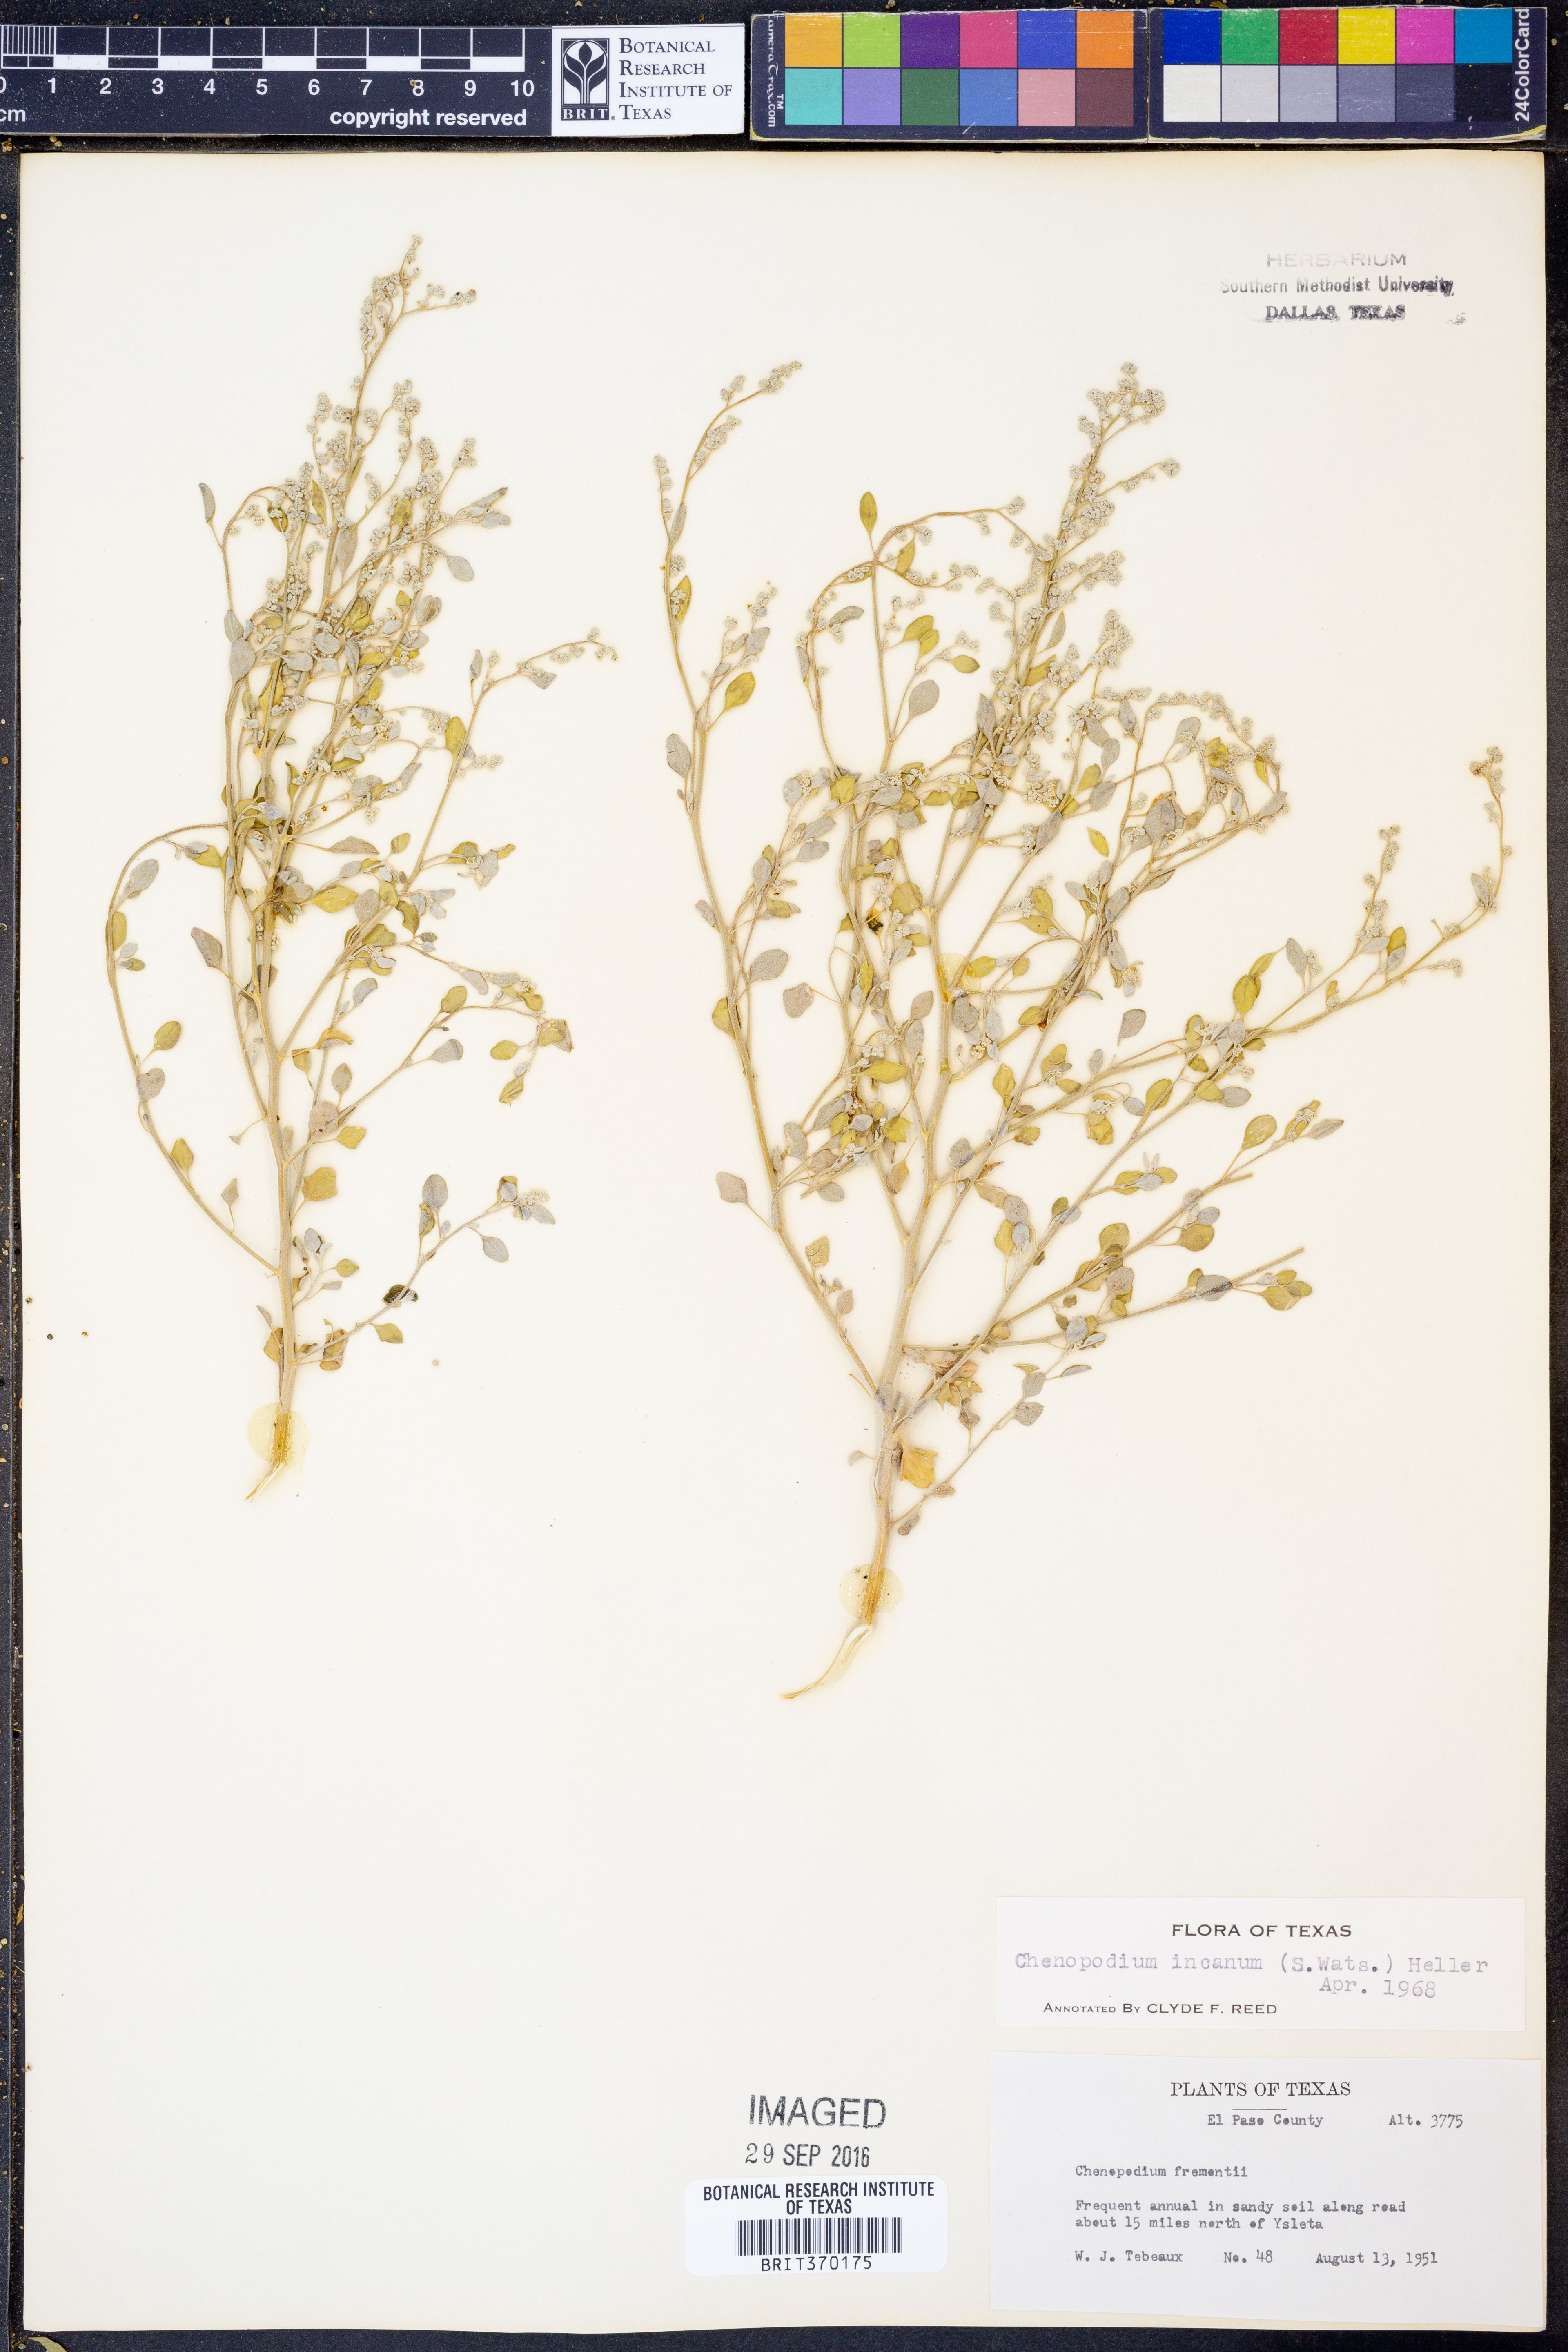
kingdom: Plantae
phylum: Tracheophyta
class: Magnoliopsida
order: Caryophyllales
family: Amaranthaceae
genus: Chenopodium
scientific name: Chenopodium incanum
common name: Hoary goosefoot
